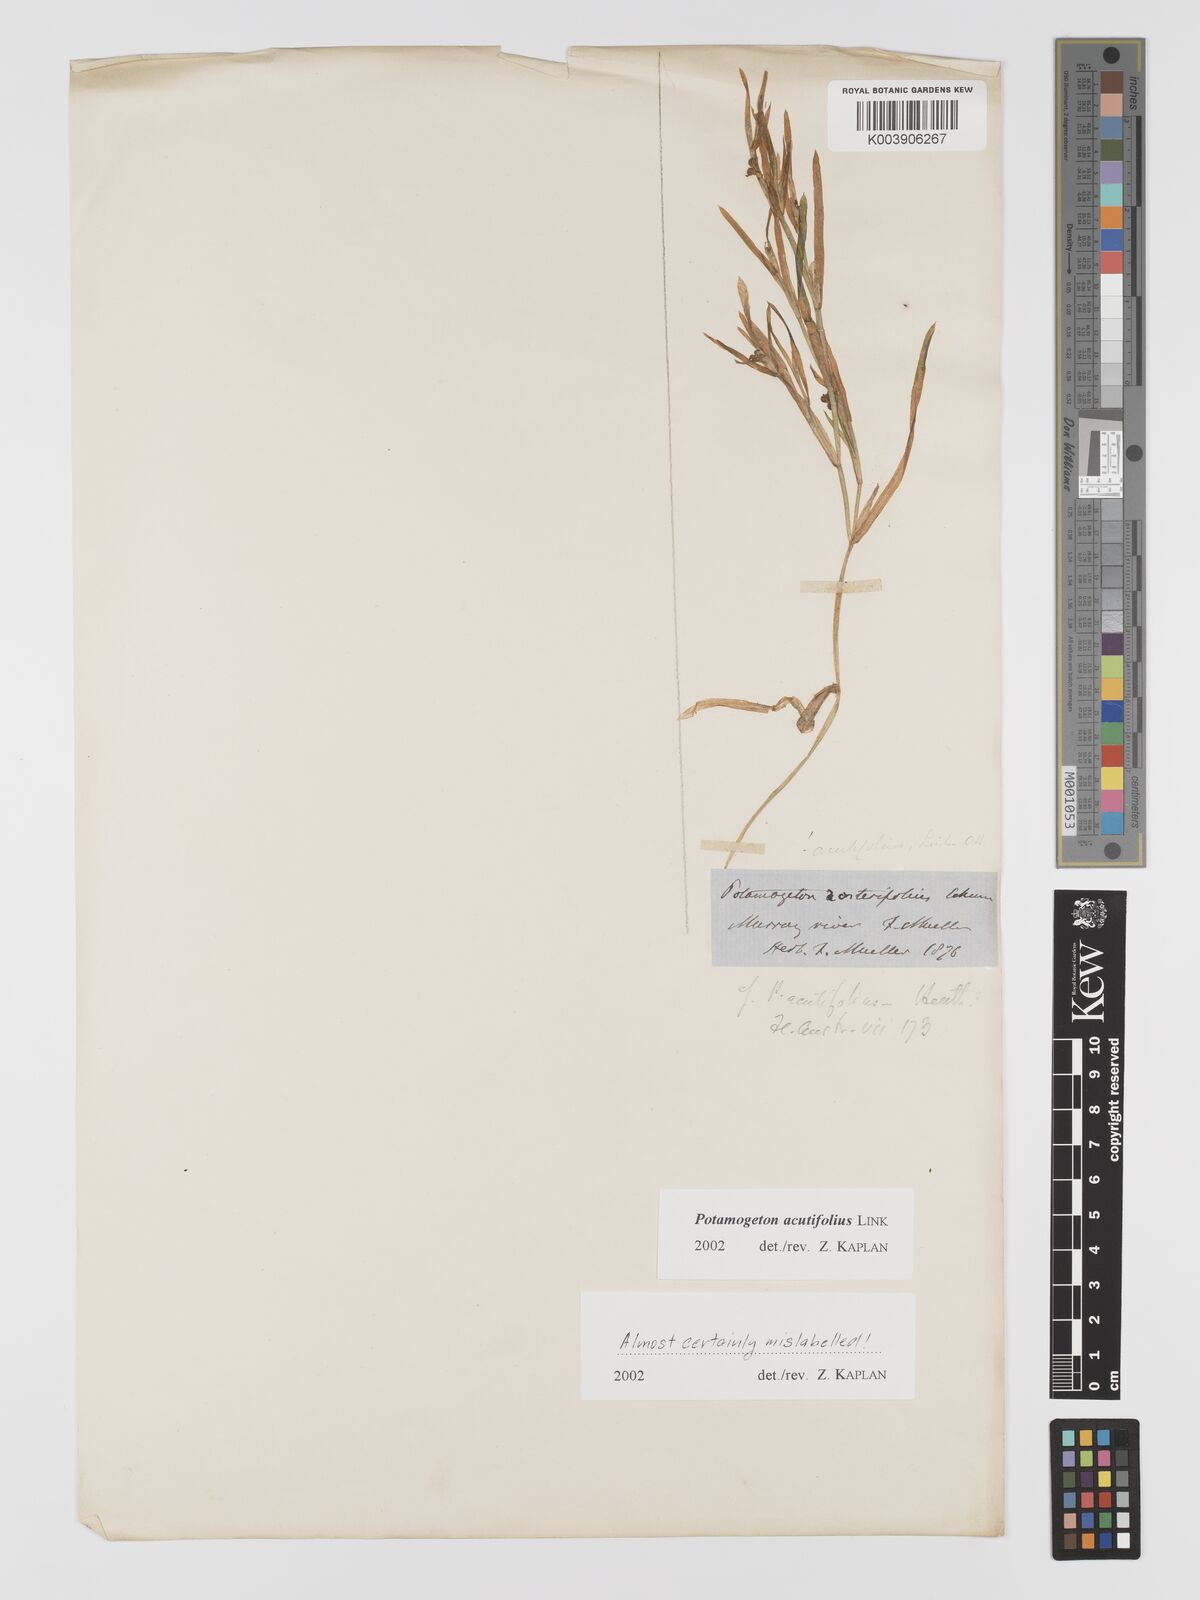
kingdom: Plantae
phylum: Tracheophyta
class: Liliopsida
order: Alismatales
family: Potamogetonaceae
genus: Potamogeton
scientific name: Potamogeton acutifolius
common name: Sharp-leaved pondweed
